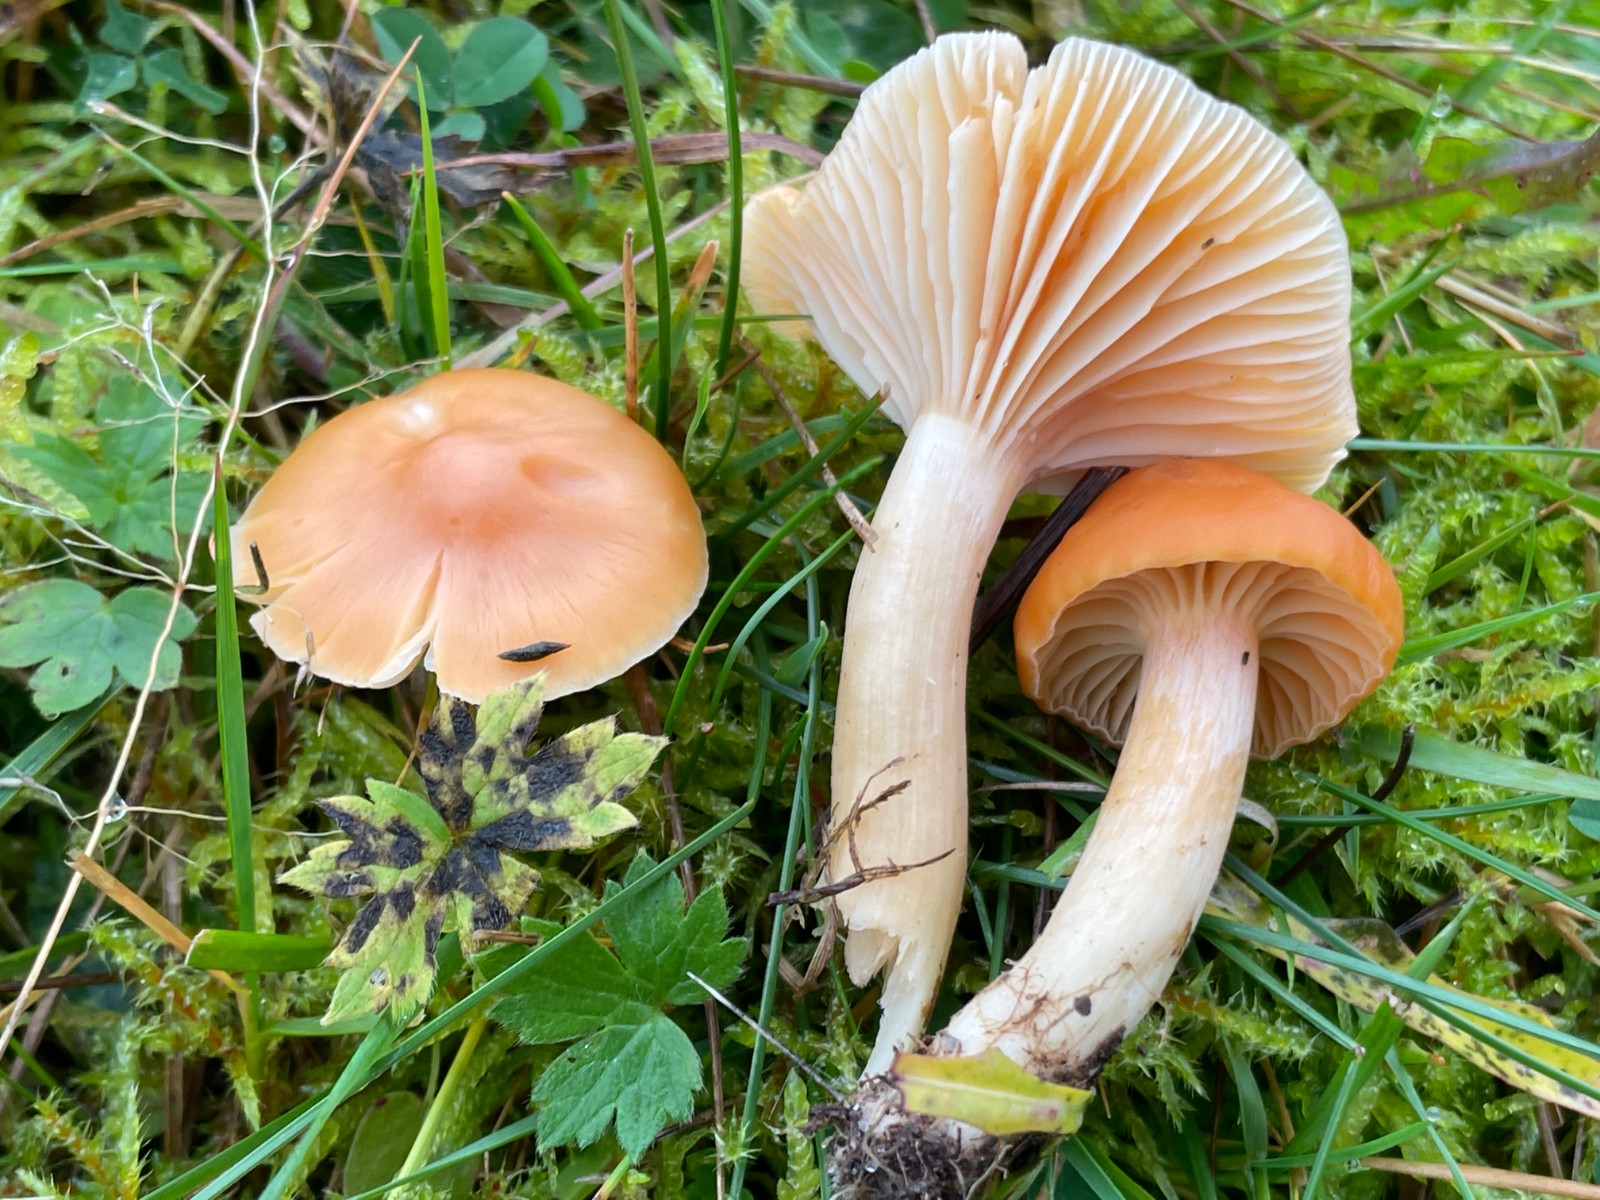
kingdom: Fungi
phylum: Basidiomycota
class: Agaricomycetes
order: Agaricales
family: Hygrophoraceae
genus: Cuphophyllus
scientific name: Cuphophyllus pratensis
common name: eng-vokshat
